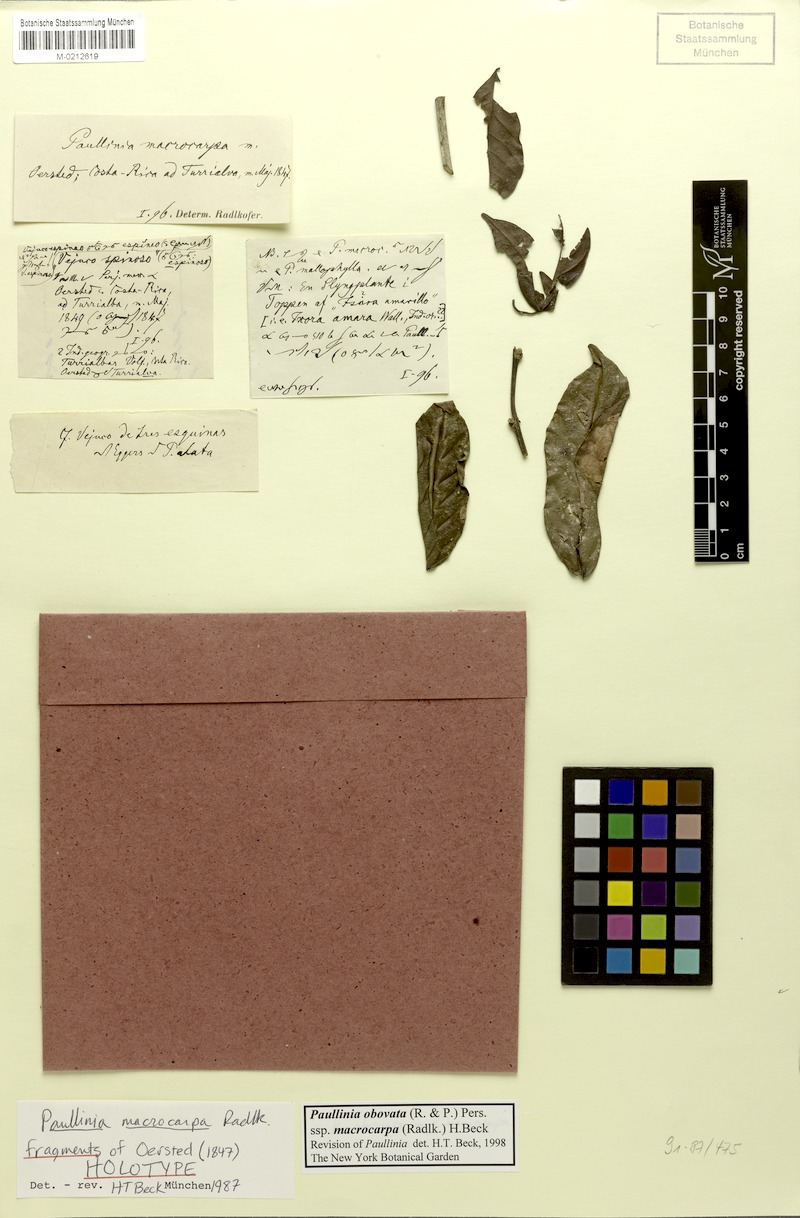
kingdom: Plantae
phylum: Tracheophyta
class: Magnoliopsida
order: Sapindales
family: Sapindaceae
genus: Paullinia
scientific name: Paullinia obovata
